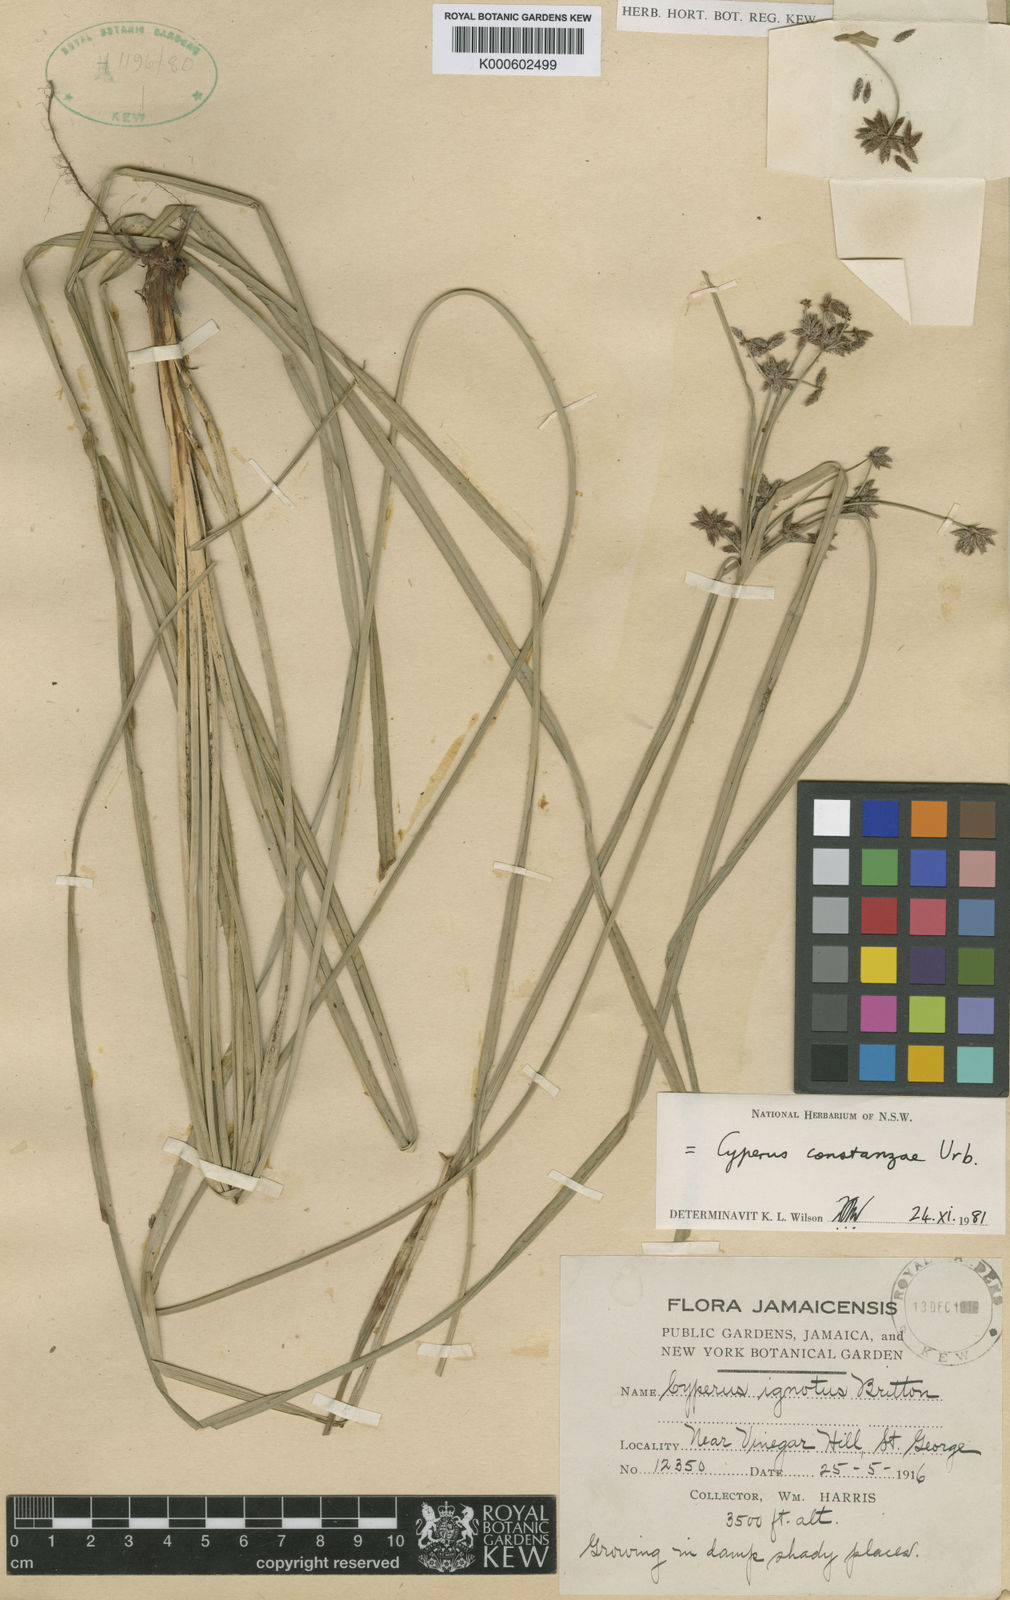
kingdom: Plantae
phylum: Tracheophyta
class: Liliopsida
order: Poales
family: Cyperaceae
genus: Cyperus
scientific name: Cyperus constanzae
